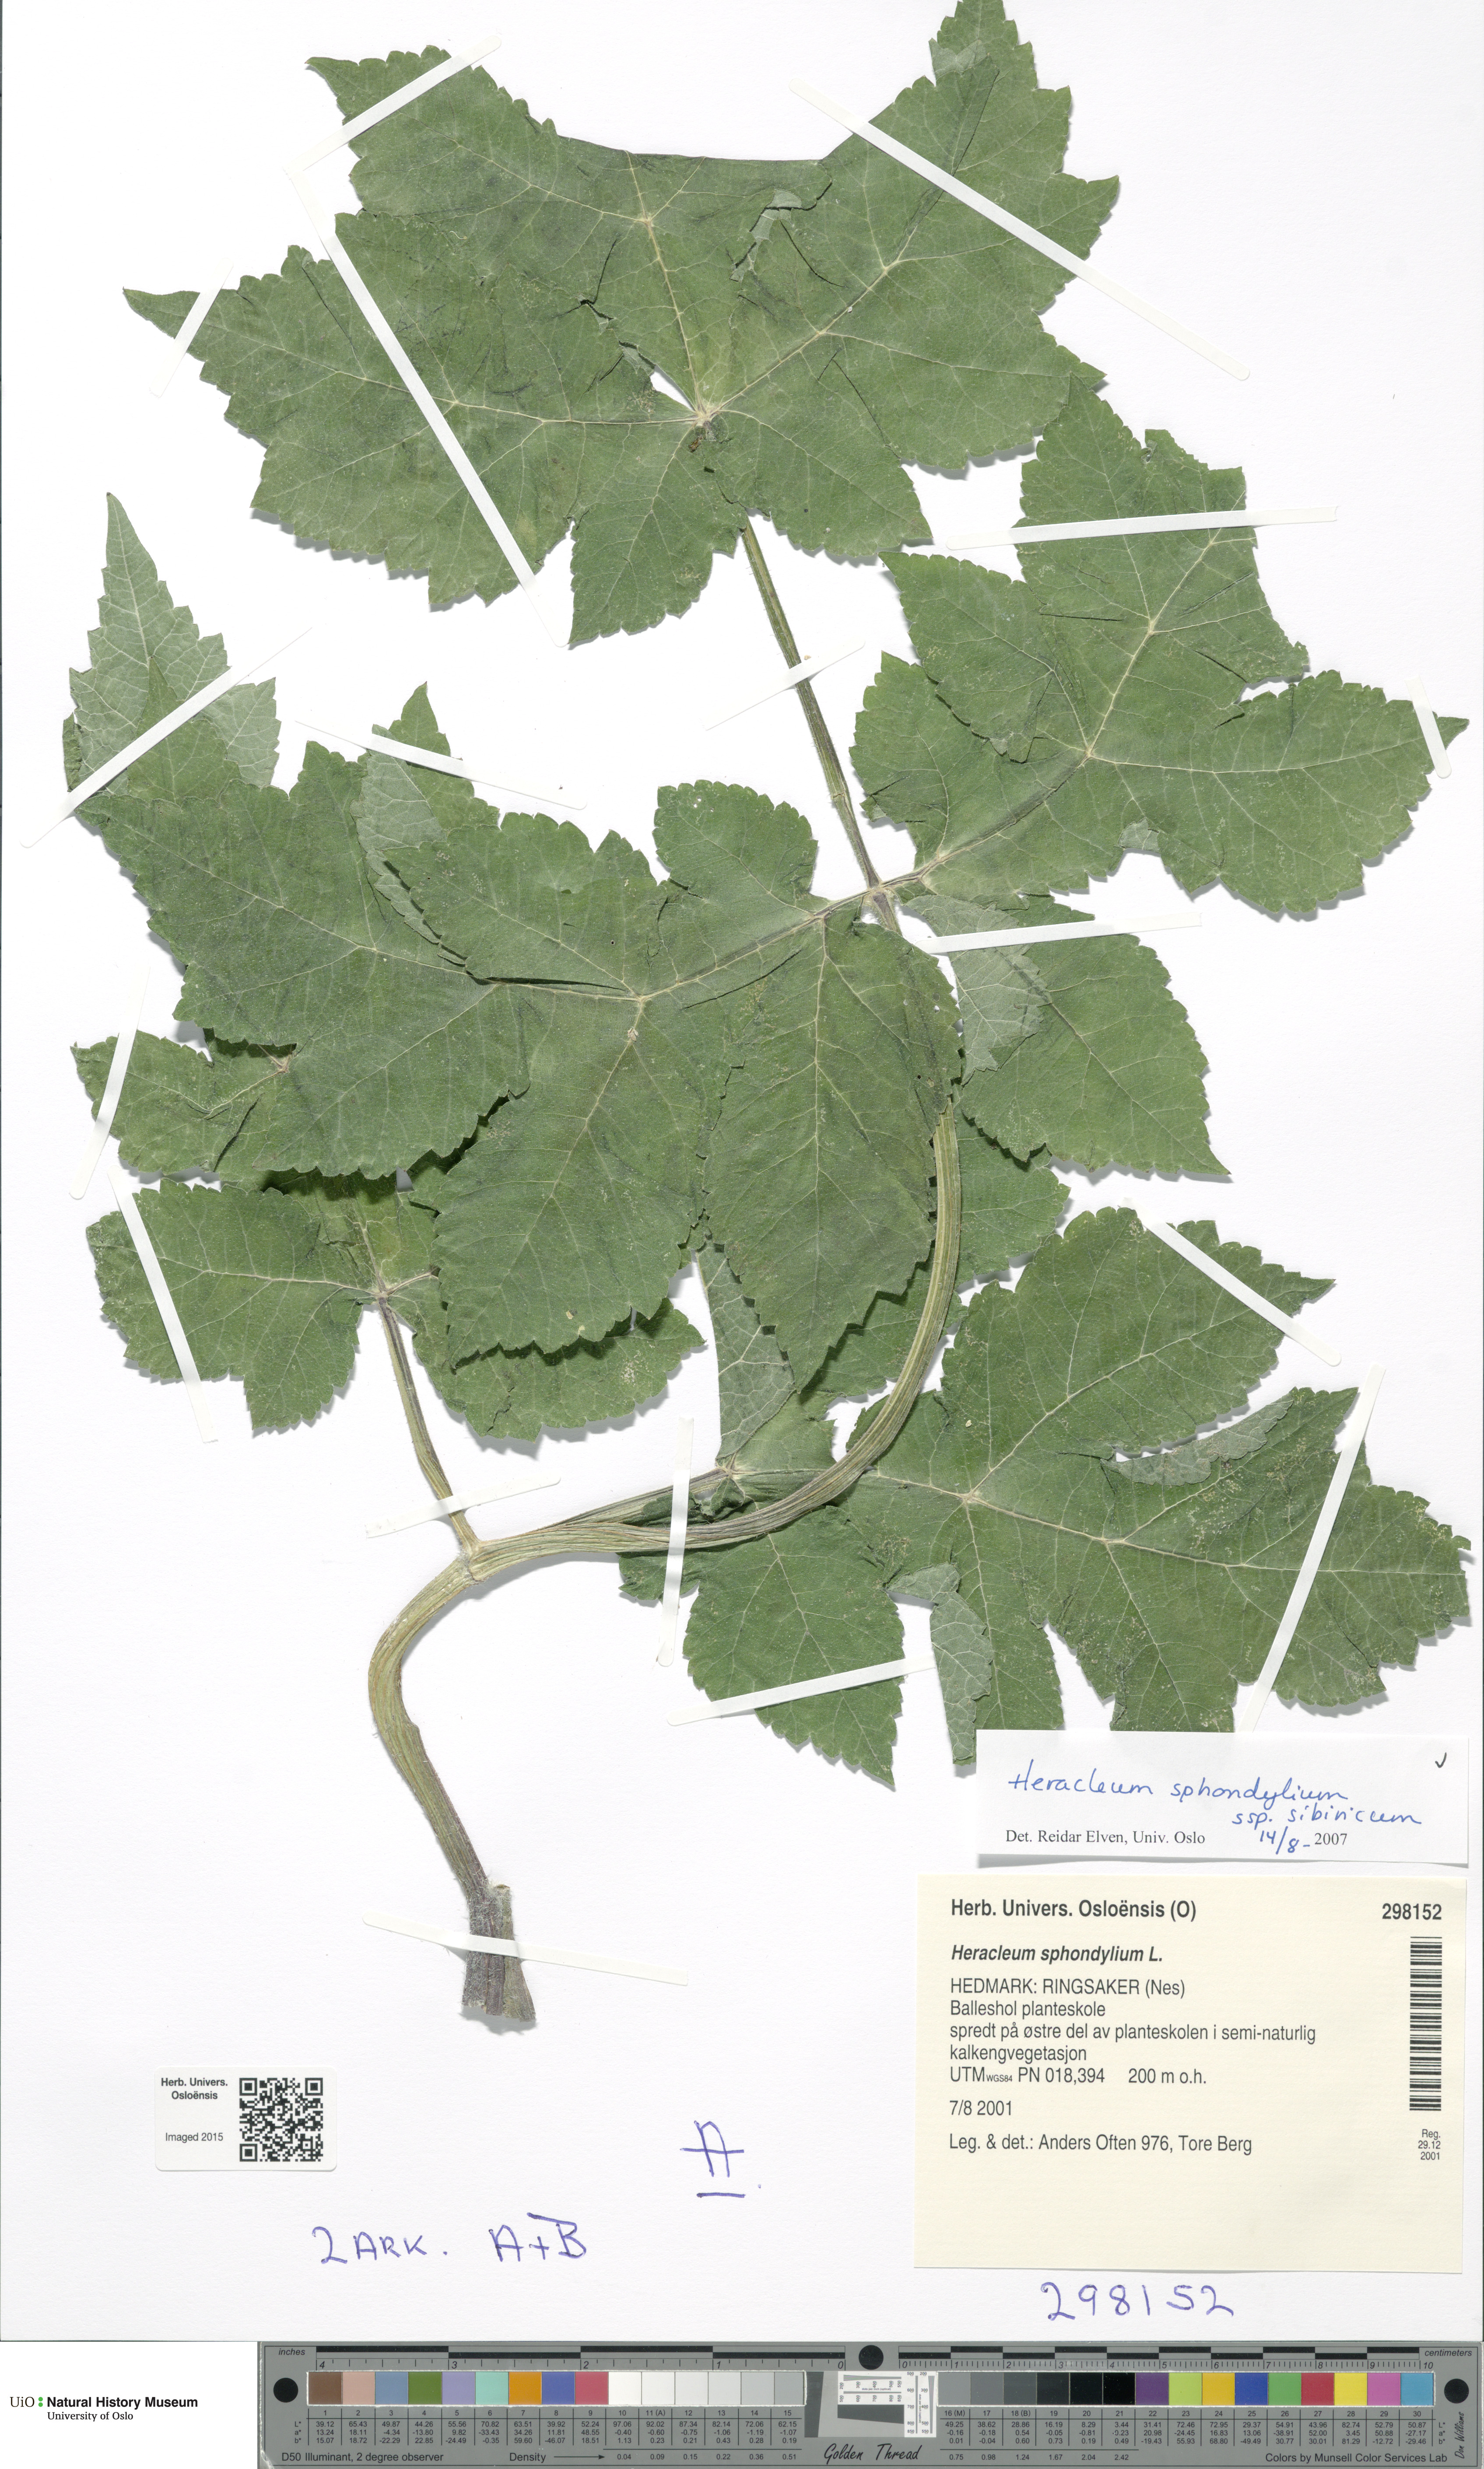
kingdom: Plantae
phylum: Tracheophyta
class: Magnoliopsida
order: Apiales
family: Apiaceae
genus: Heracleum
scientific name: Heracleum sphondylium
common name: Hogweed
